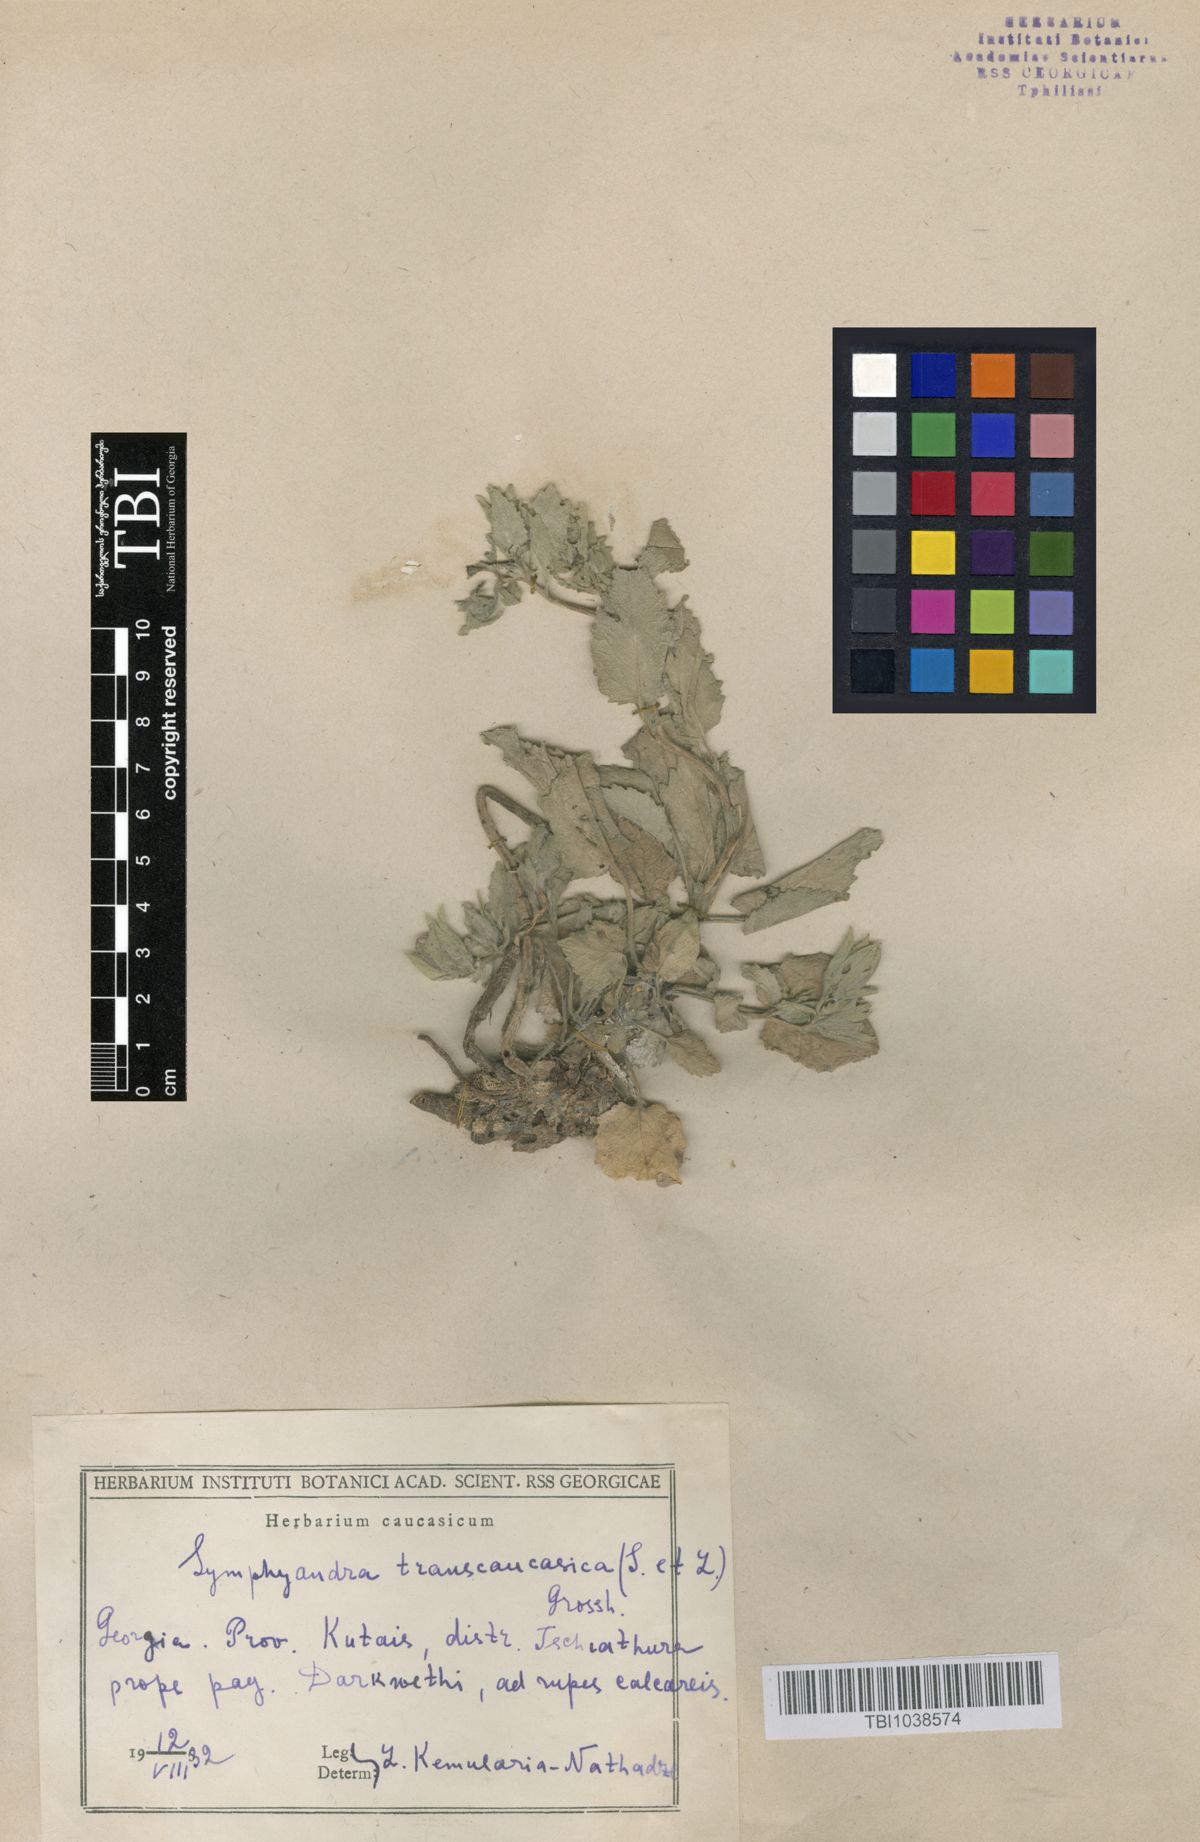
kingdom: Plantae
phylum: Tracheophyta
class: Magnoliopsida
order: Asterales
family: Campanulaceae
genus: Campanula
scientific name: Campanula pendula
